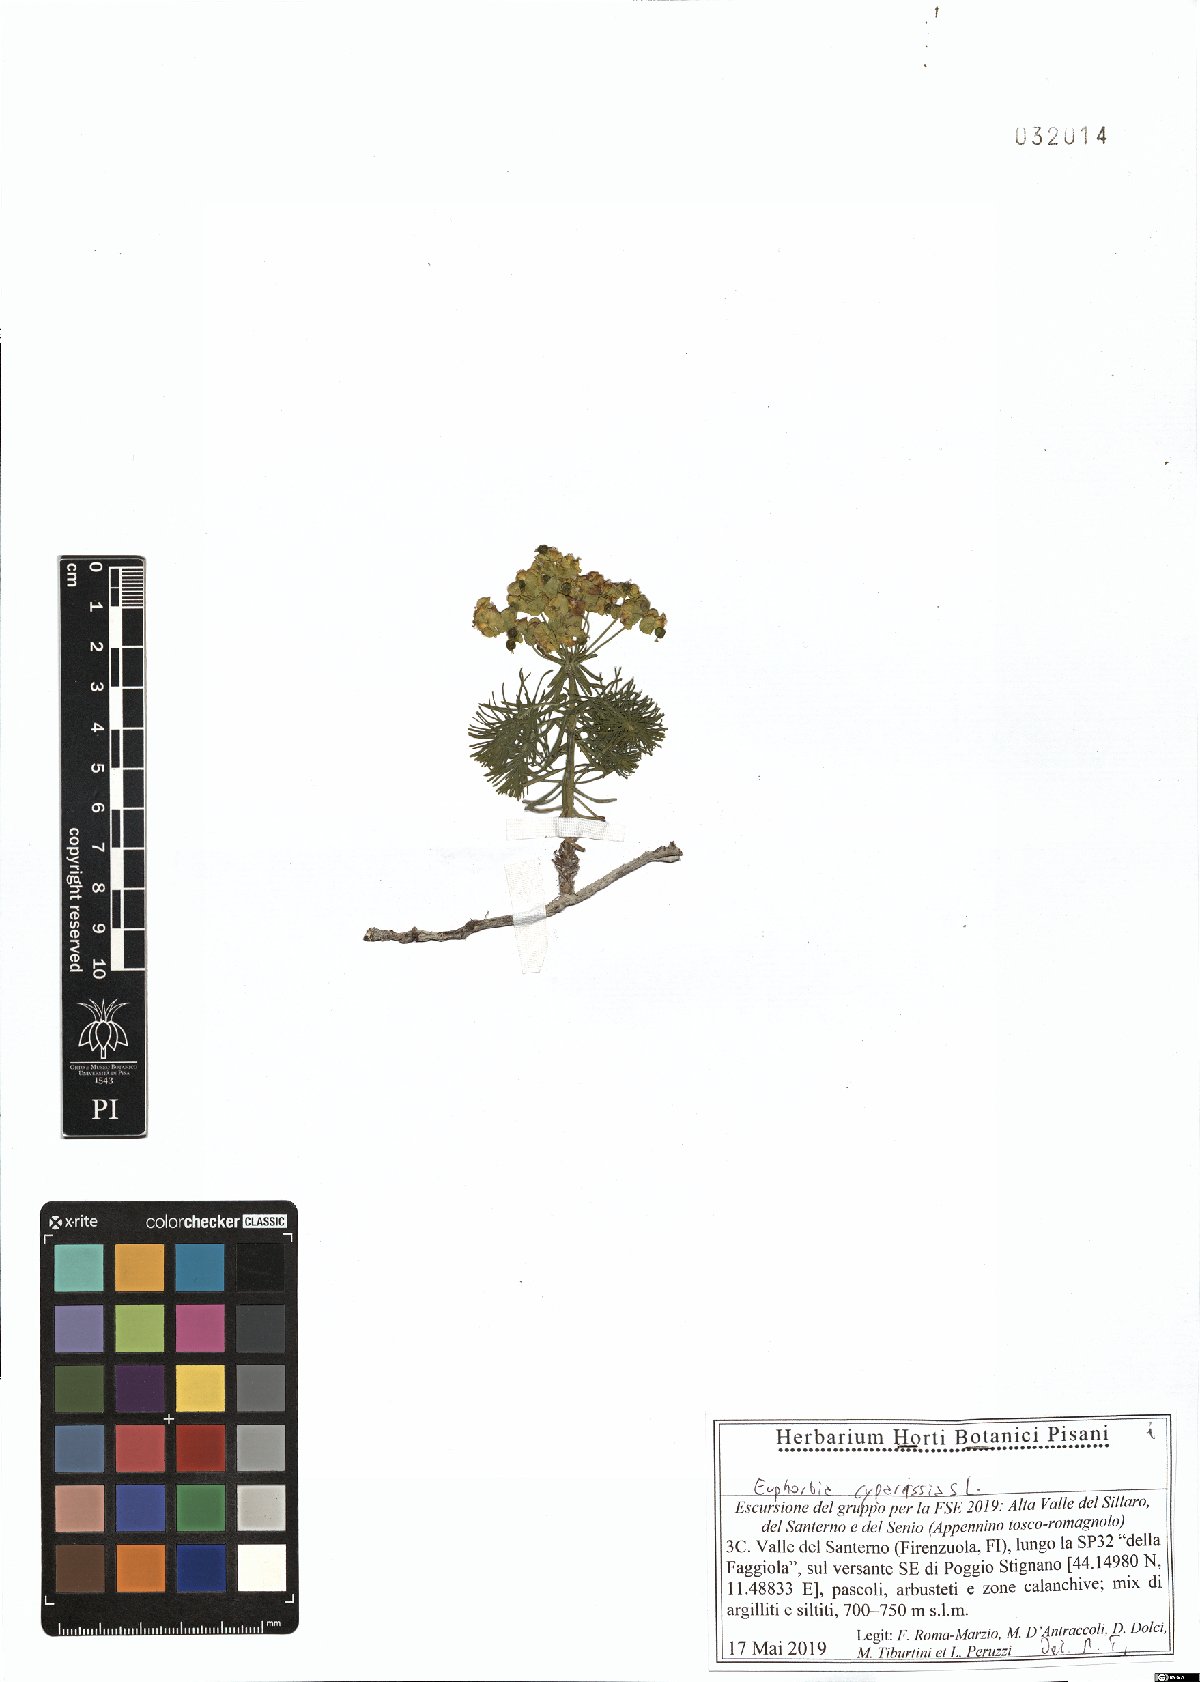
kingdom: Plantae
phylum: Tracheophyta
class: Magnoliopsida
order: Malpighiales
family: Euphorbiaceae
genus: Euphorbia
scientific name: Euphorbia cyparissias
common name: Cypress spurge
